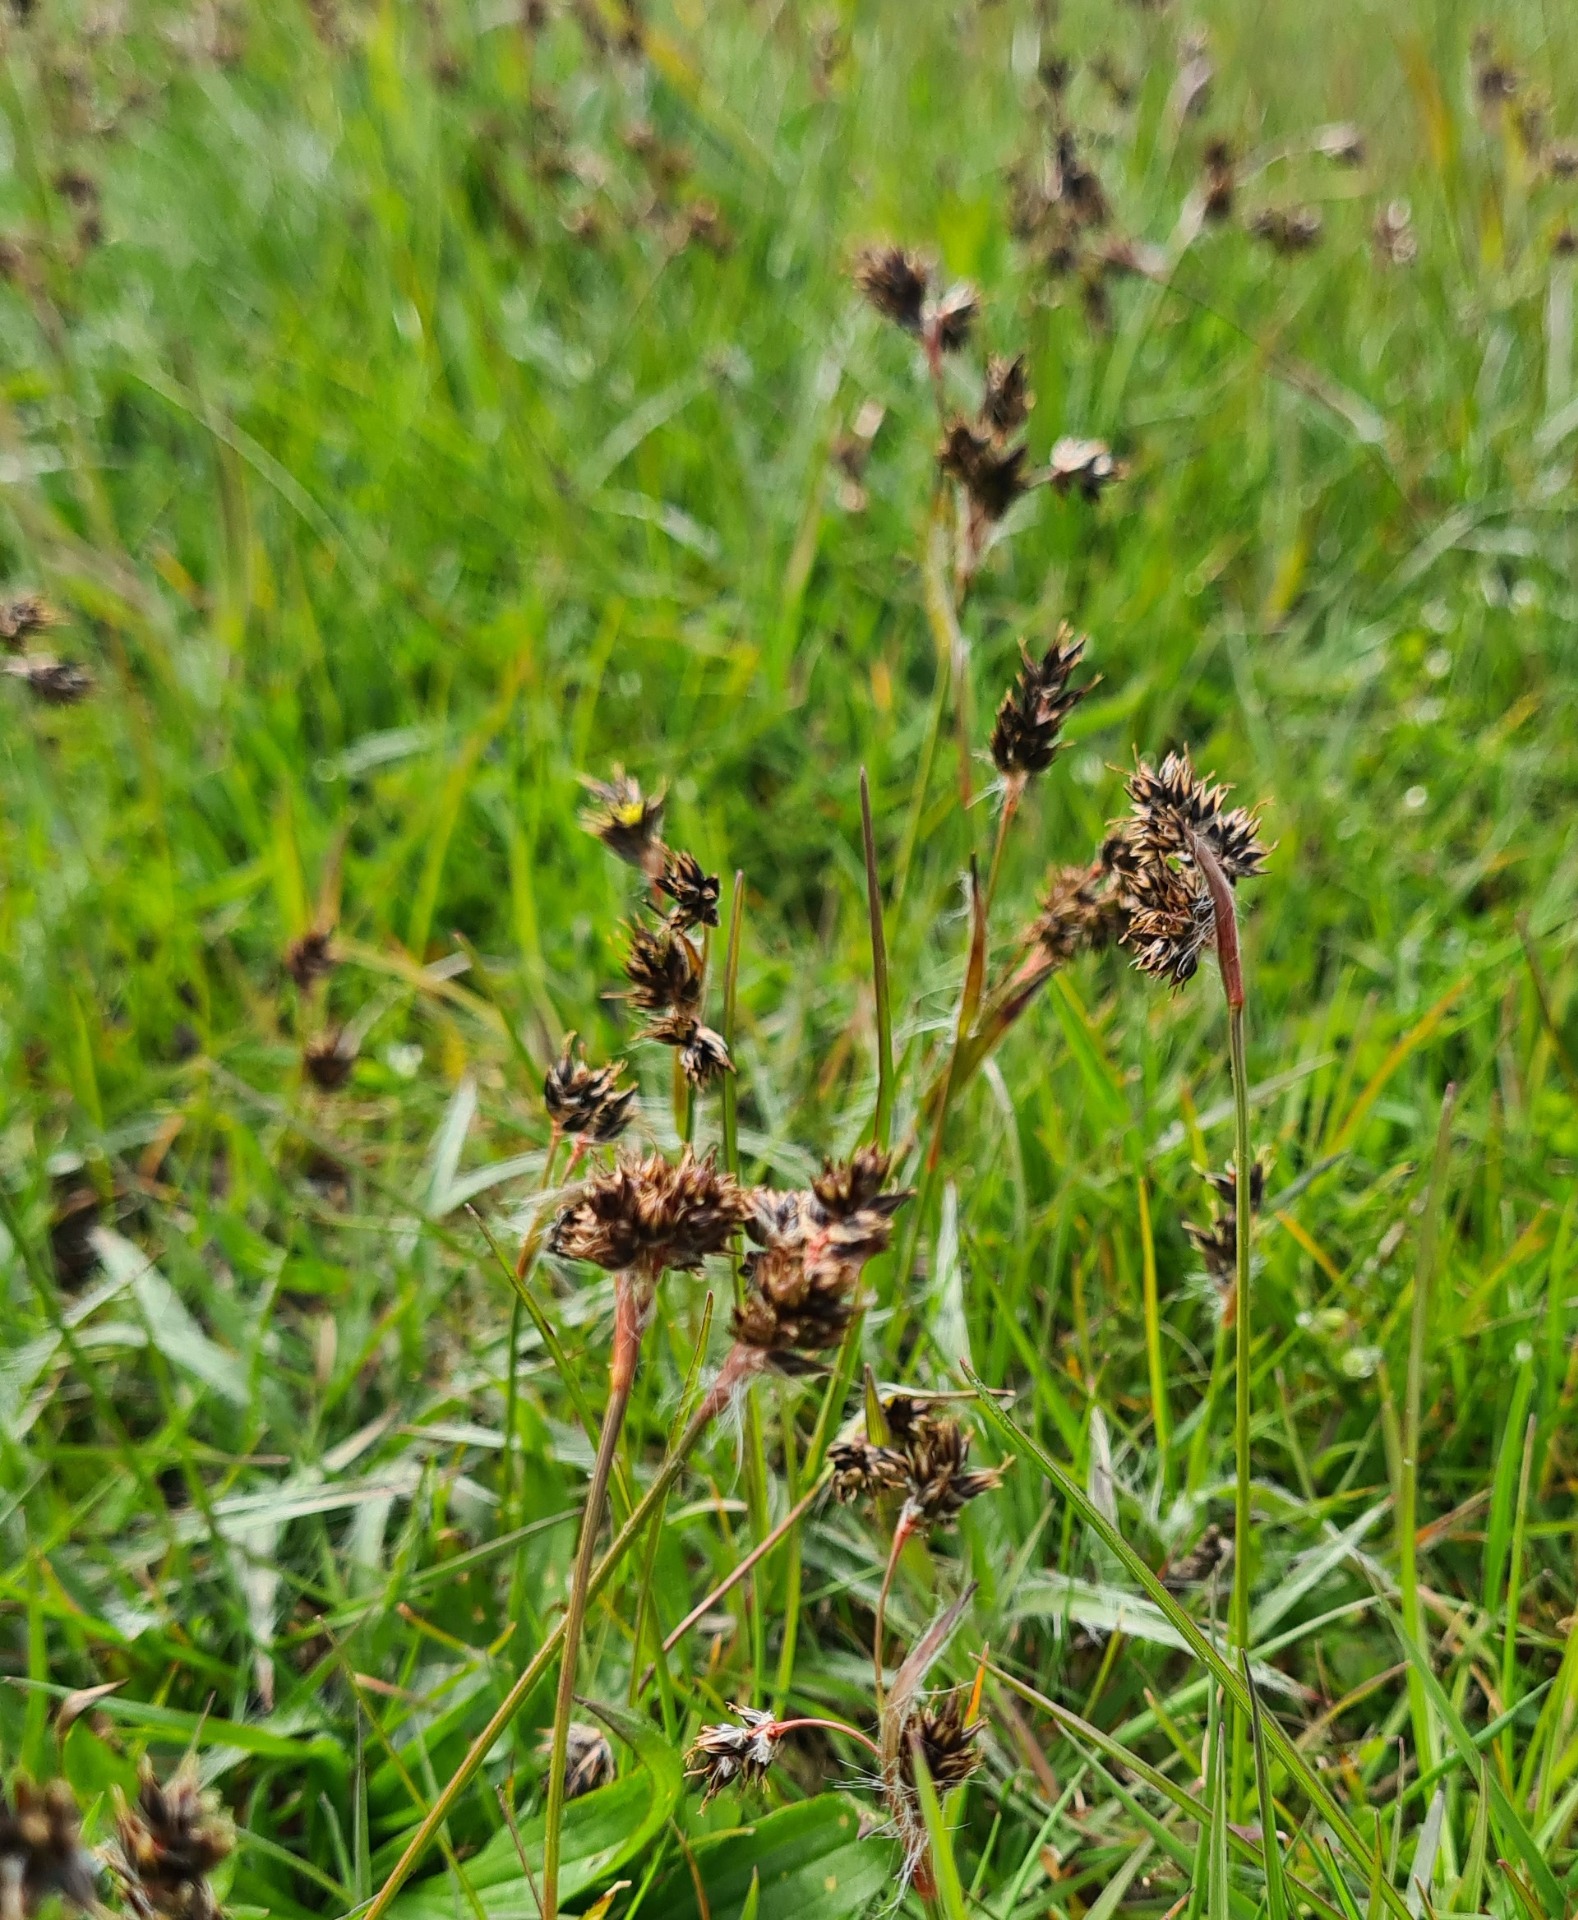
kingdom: Plantae
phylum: Tracheophyta
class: Liliopsida
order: Poales
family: Juncaceae
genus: Luzula
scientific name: Luzula campestris
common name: Mark-frytle
